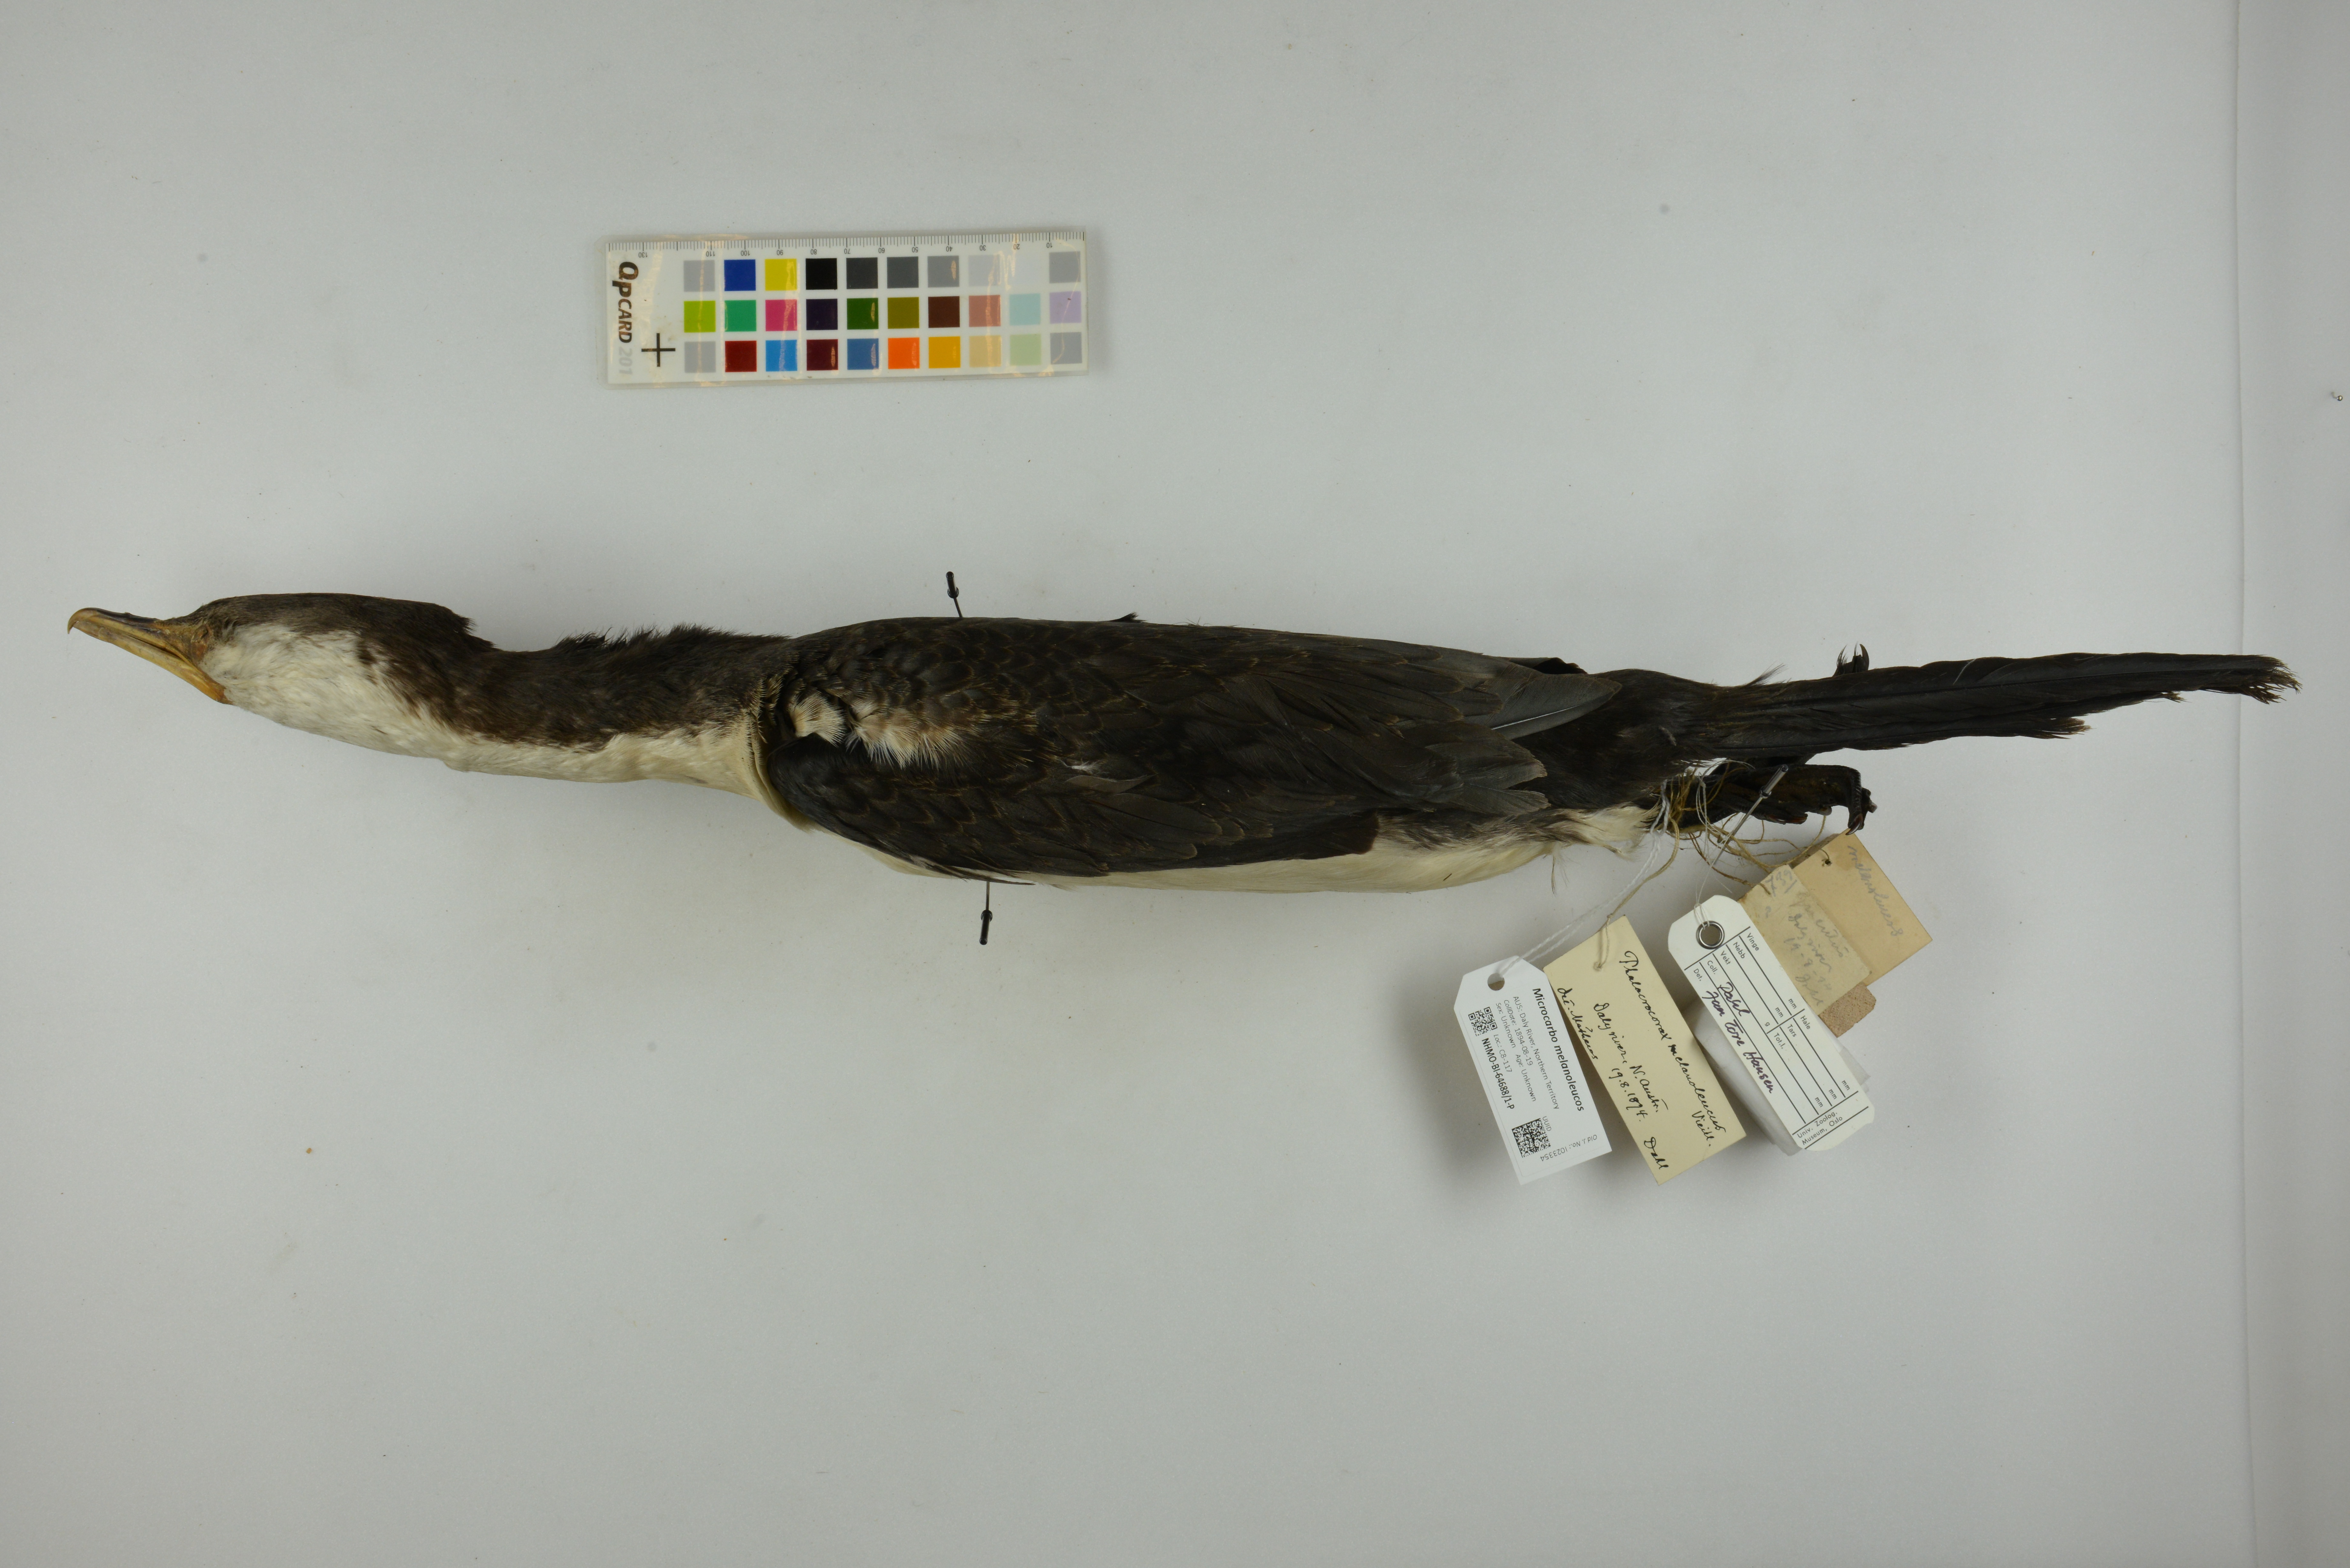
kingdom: Animalia
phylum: Chordata
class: Aves
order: Suliformes
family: Phalacrocoracidae
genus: Microcarbo
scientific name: Microcarbo melanoleucos
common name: Little pied cormorant
